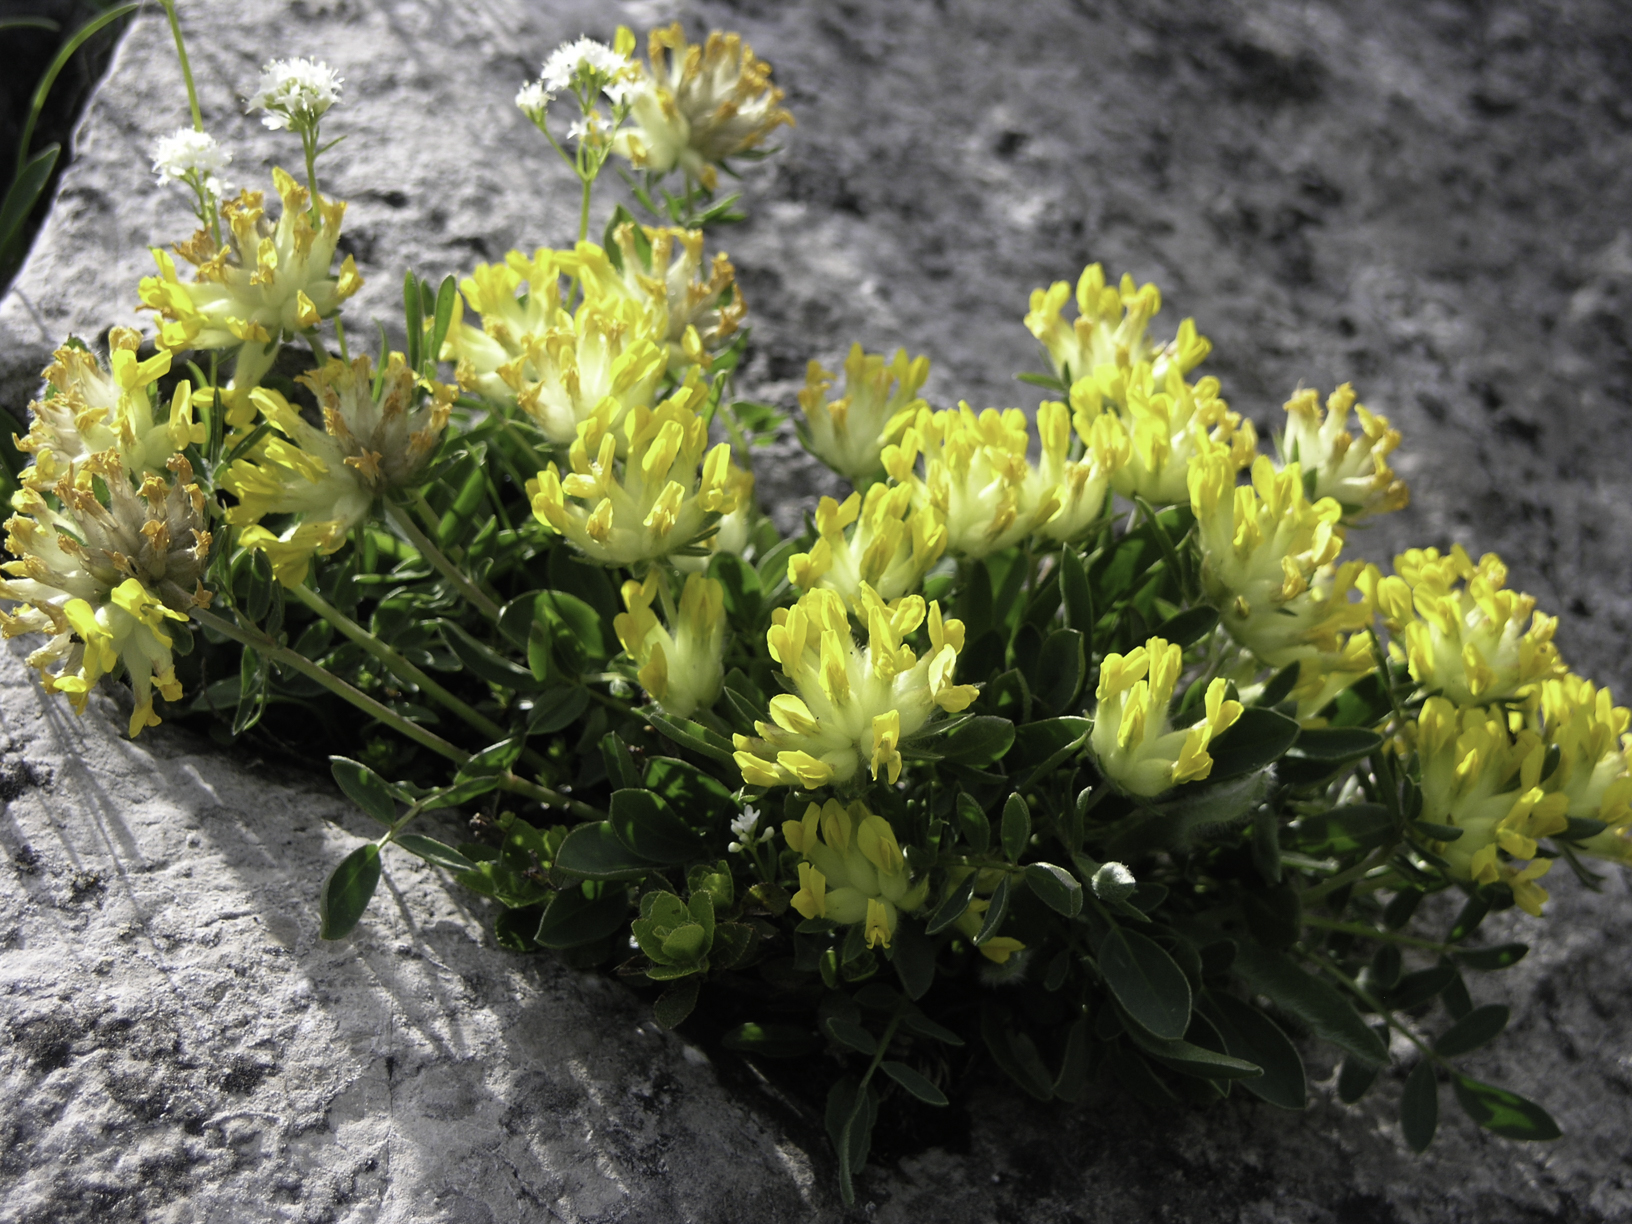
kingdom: Plantae
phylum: Tracheophyta
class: Magnoliopsida
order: Fabales
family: Fabaceae
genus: Anthyllis
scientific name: Anthyllis vulneraria
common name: Kidney vetch
